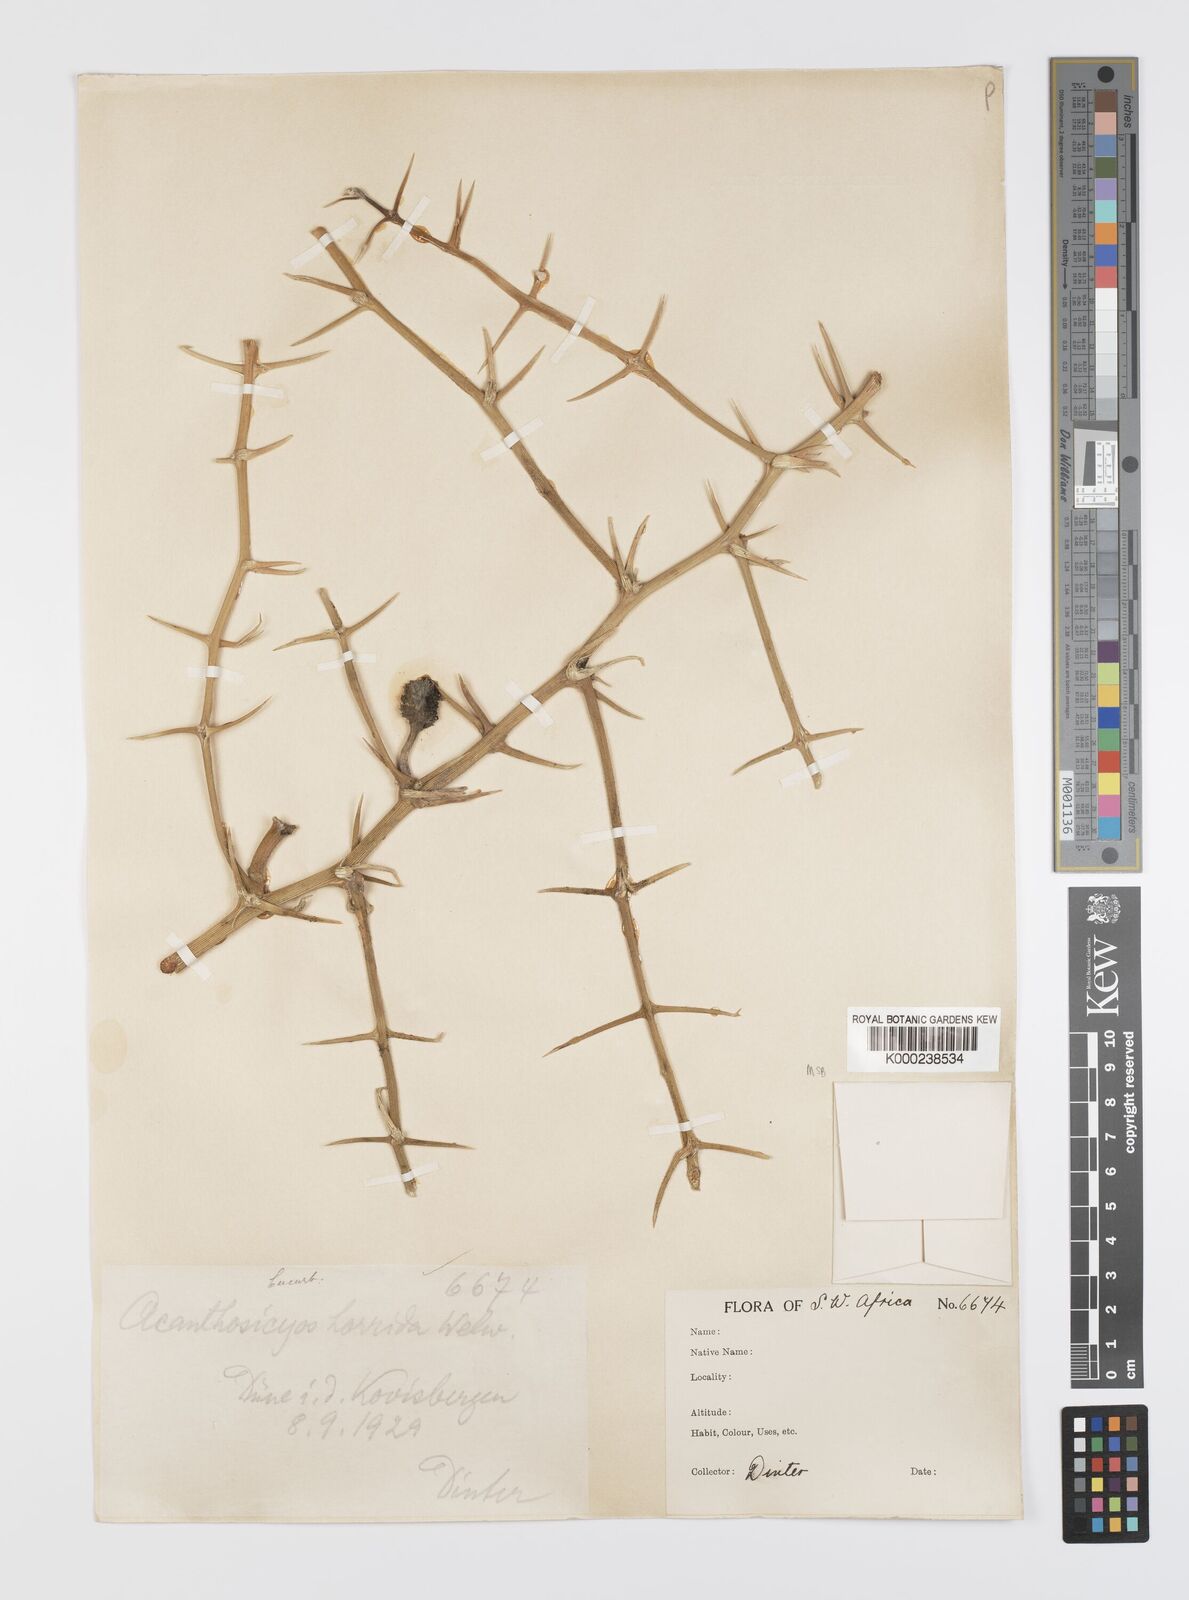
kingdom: Plantae
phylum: Tracheophyta
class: Magnoliopsida
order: Cucurbitales
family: Cucurbitaceae
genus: Acanthosicyos
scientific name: Acanthosicyos horridus
